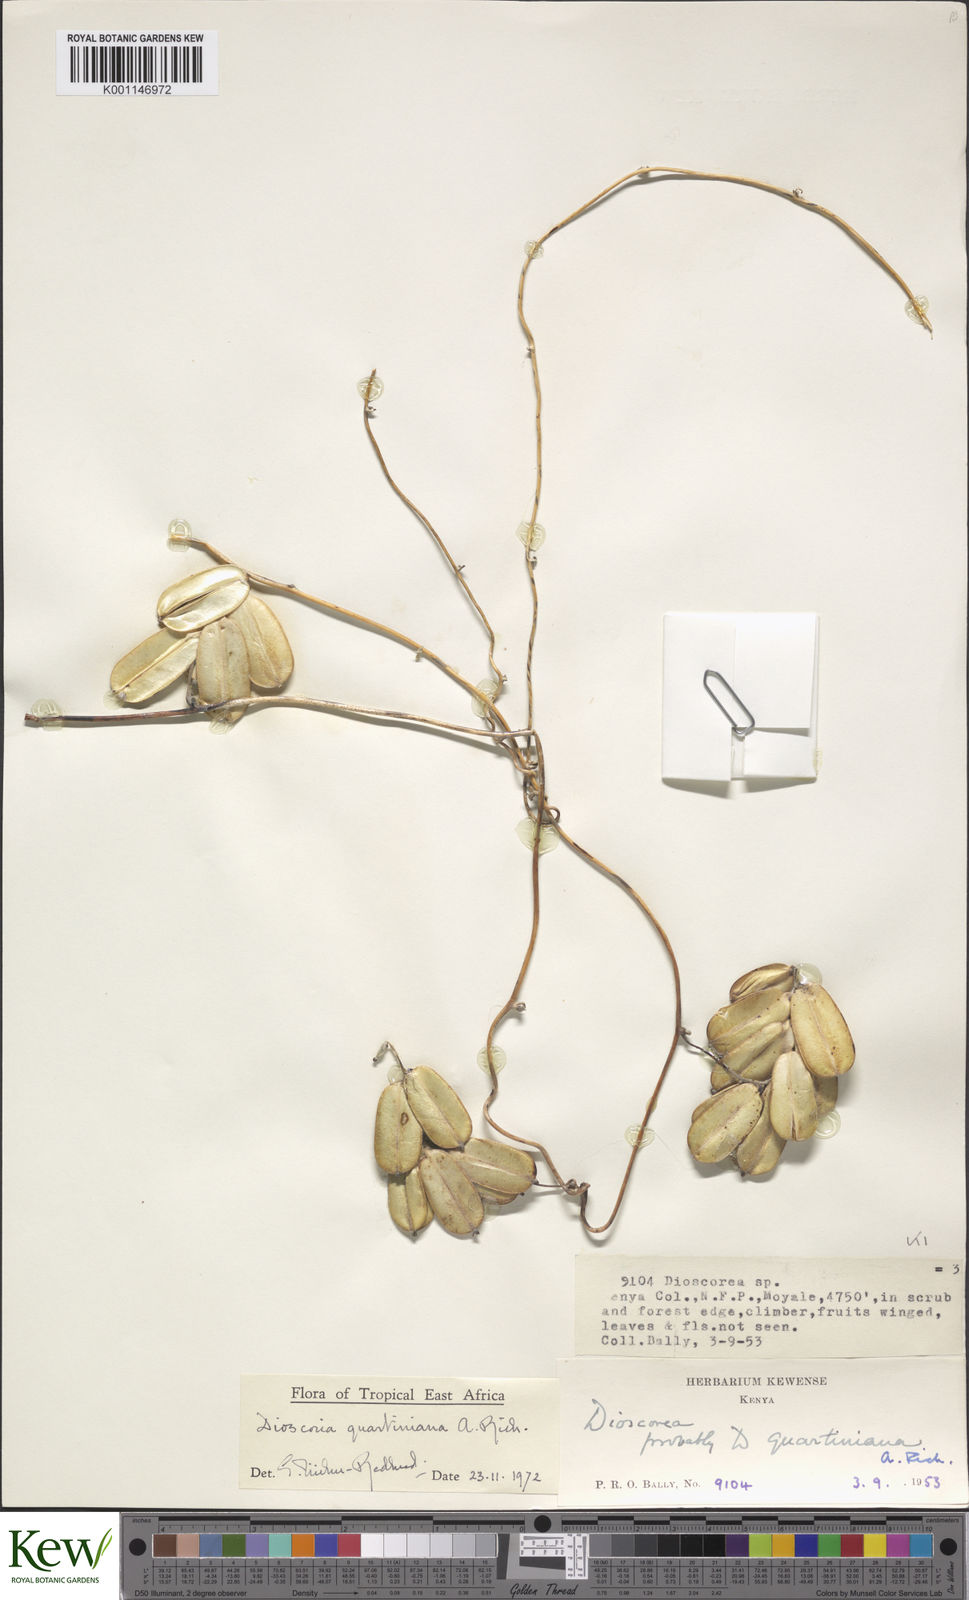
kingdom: Plantae
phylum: Tracheophyta
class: Liliopsida
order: Dioscoreales
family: Dioscoreaceae
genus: Dioscorea
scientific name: Dioscorea quartiniana
